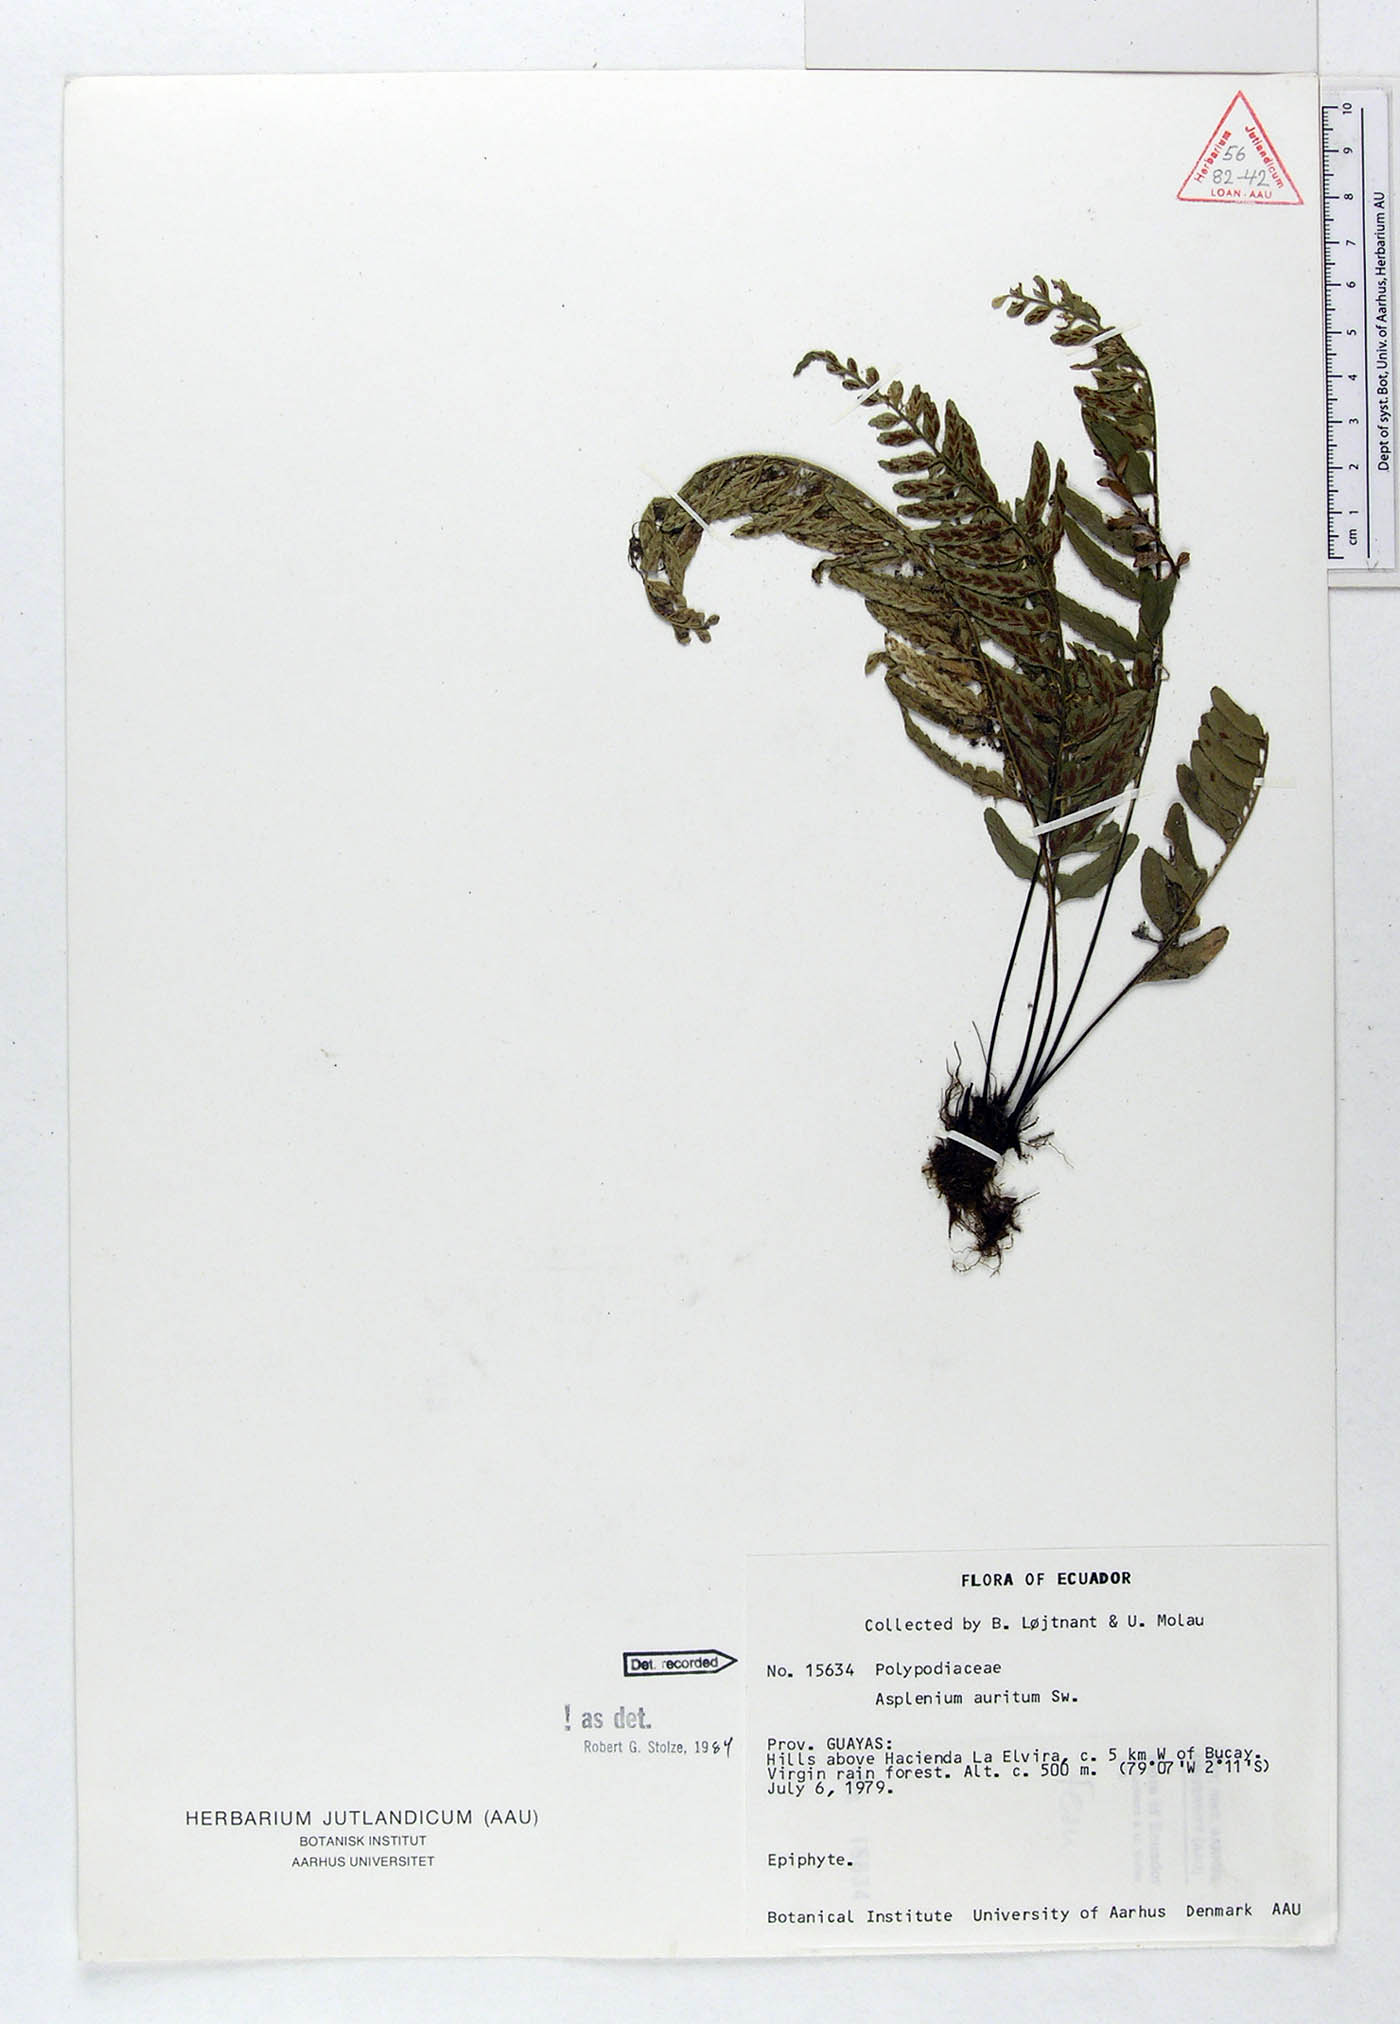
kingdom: Plantae
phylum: Tracheophyta
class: Polypodiopsida
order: Polypodiales
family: Aspleniaceae
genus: Asplenium
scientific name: Asplenium auritum
